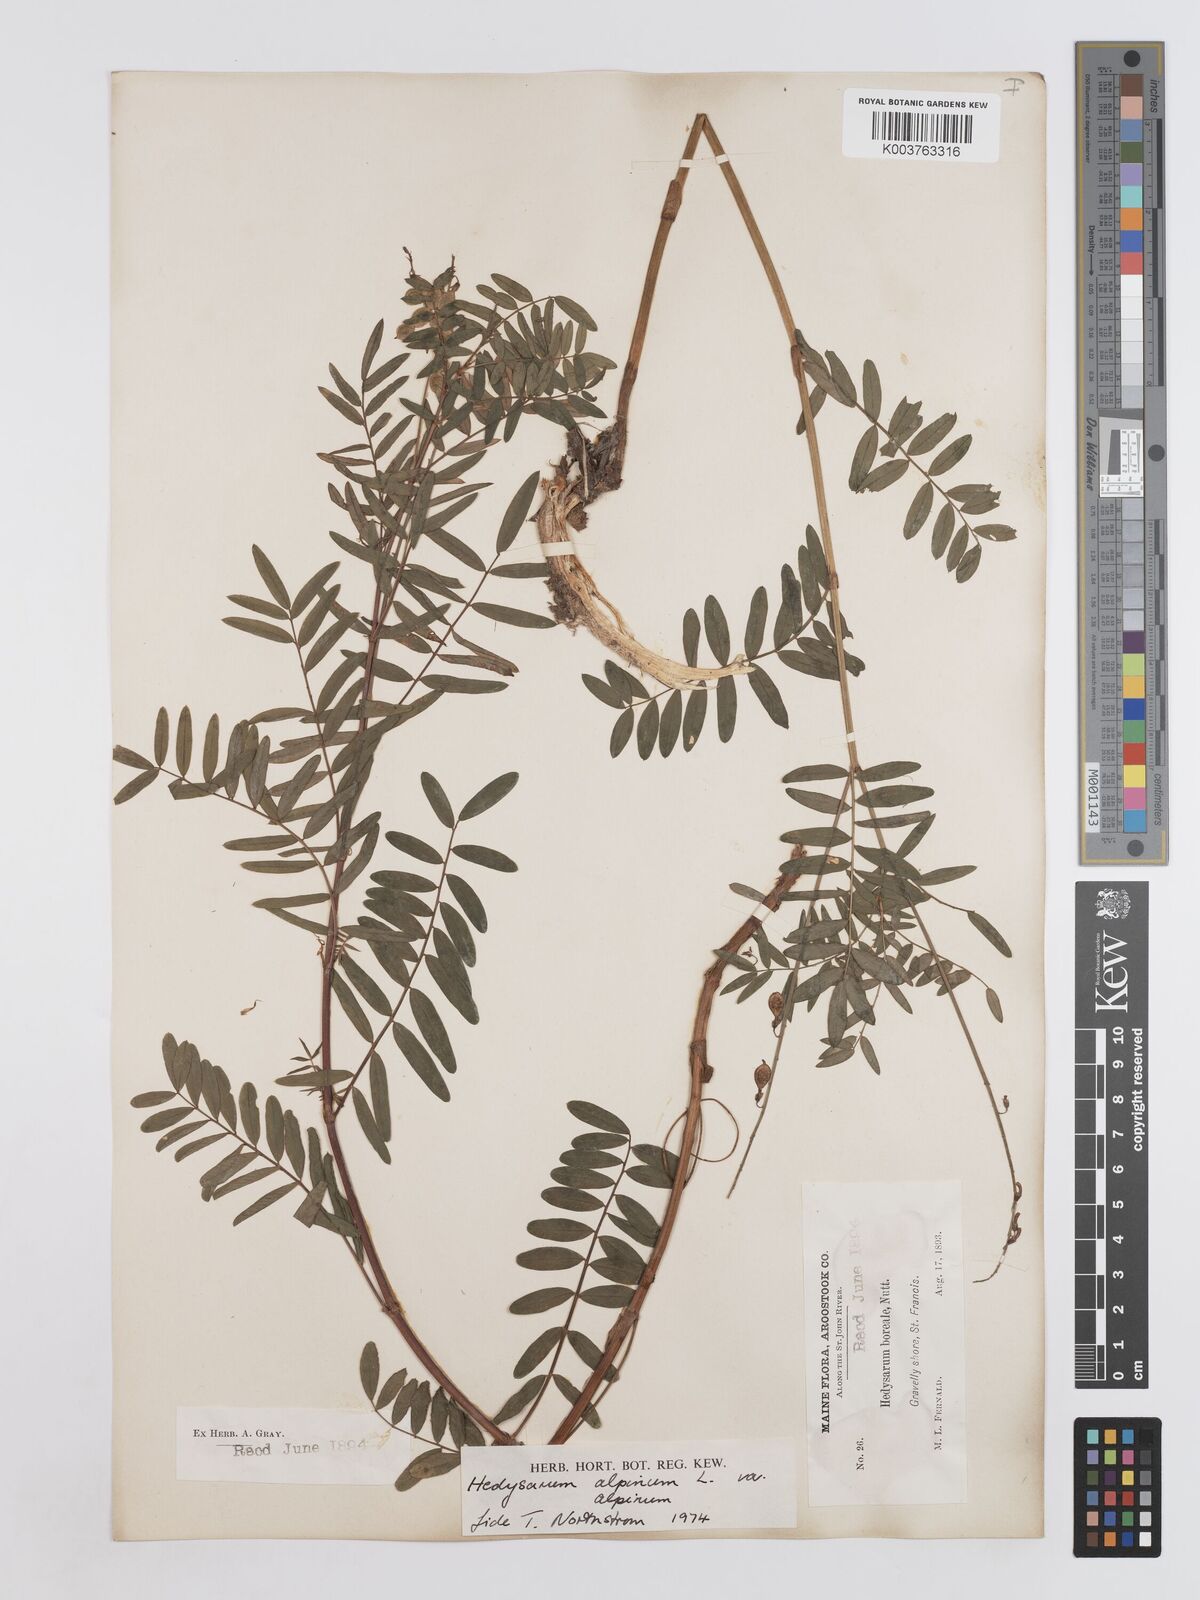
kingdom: Plantae
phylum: Tracheophyta
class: Magnoliopsida
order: Fabales
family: Fabaceae
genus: Hedysarum
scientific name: Hedysarum alpinum
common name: Alpine sweet-vetch
